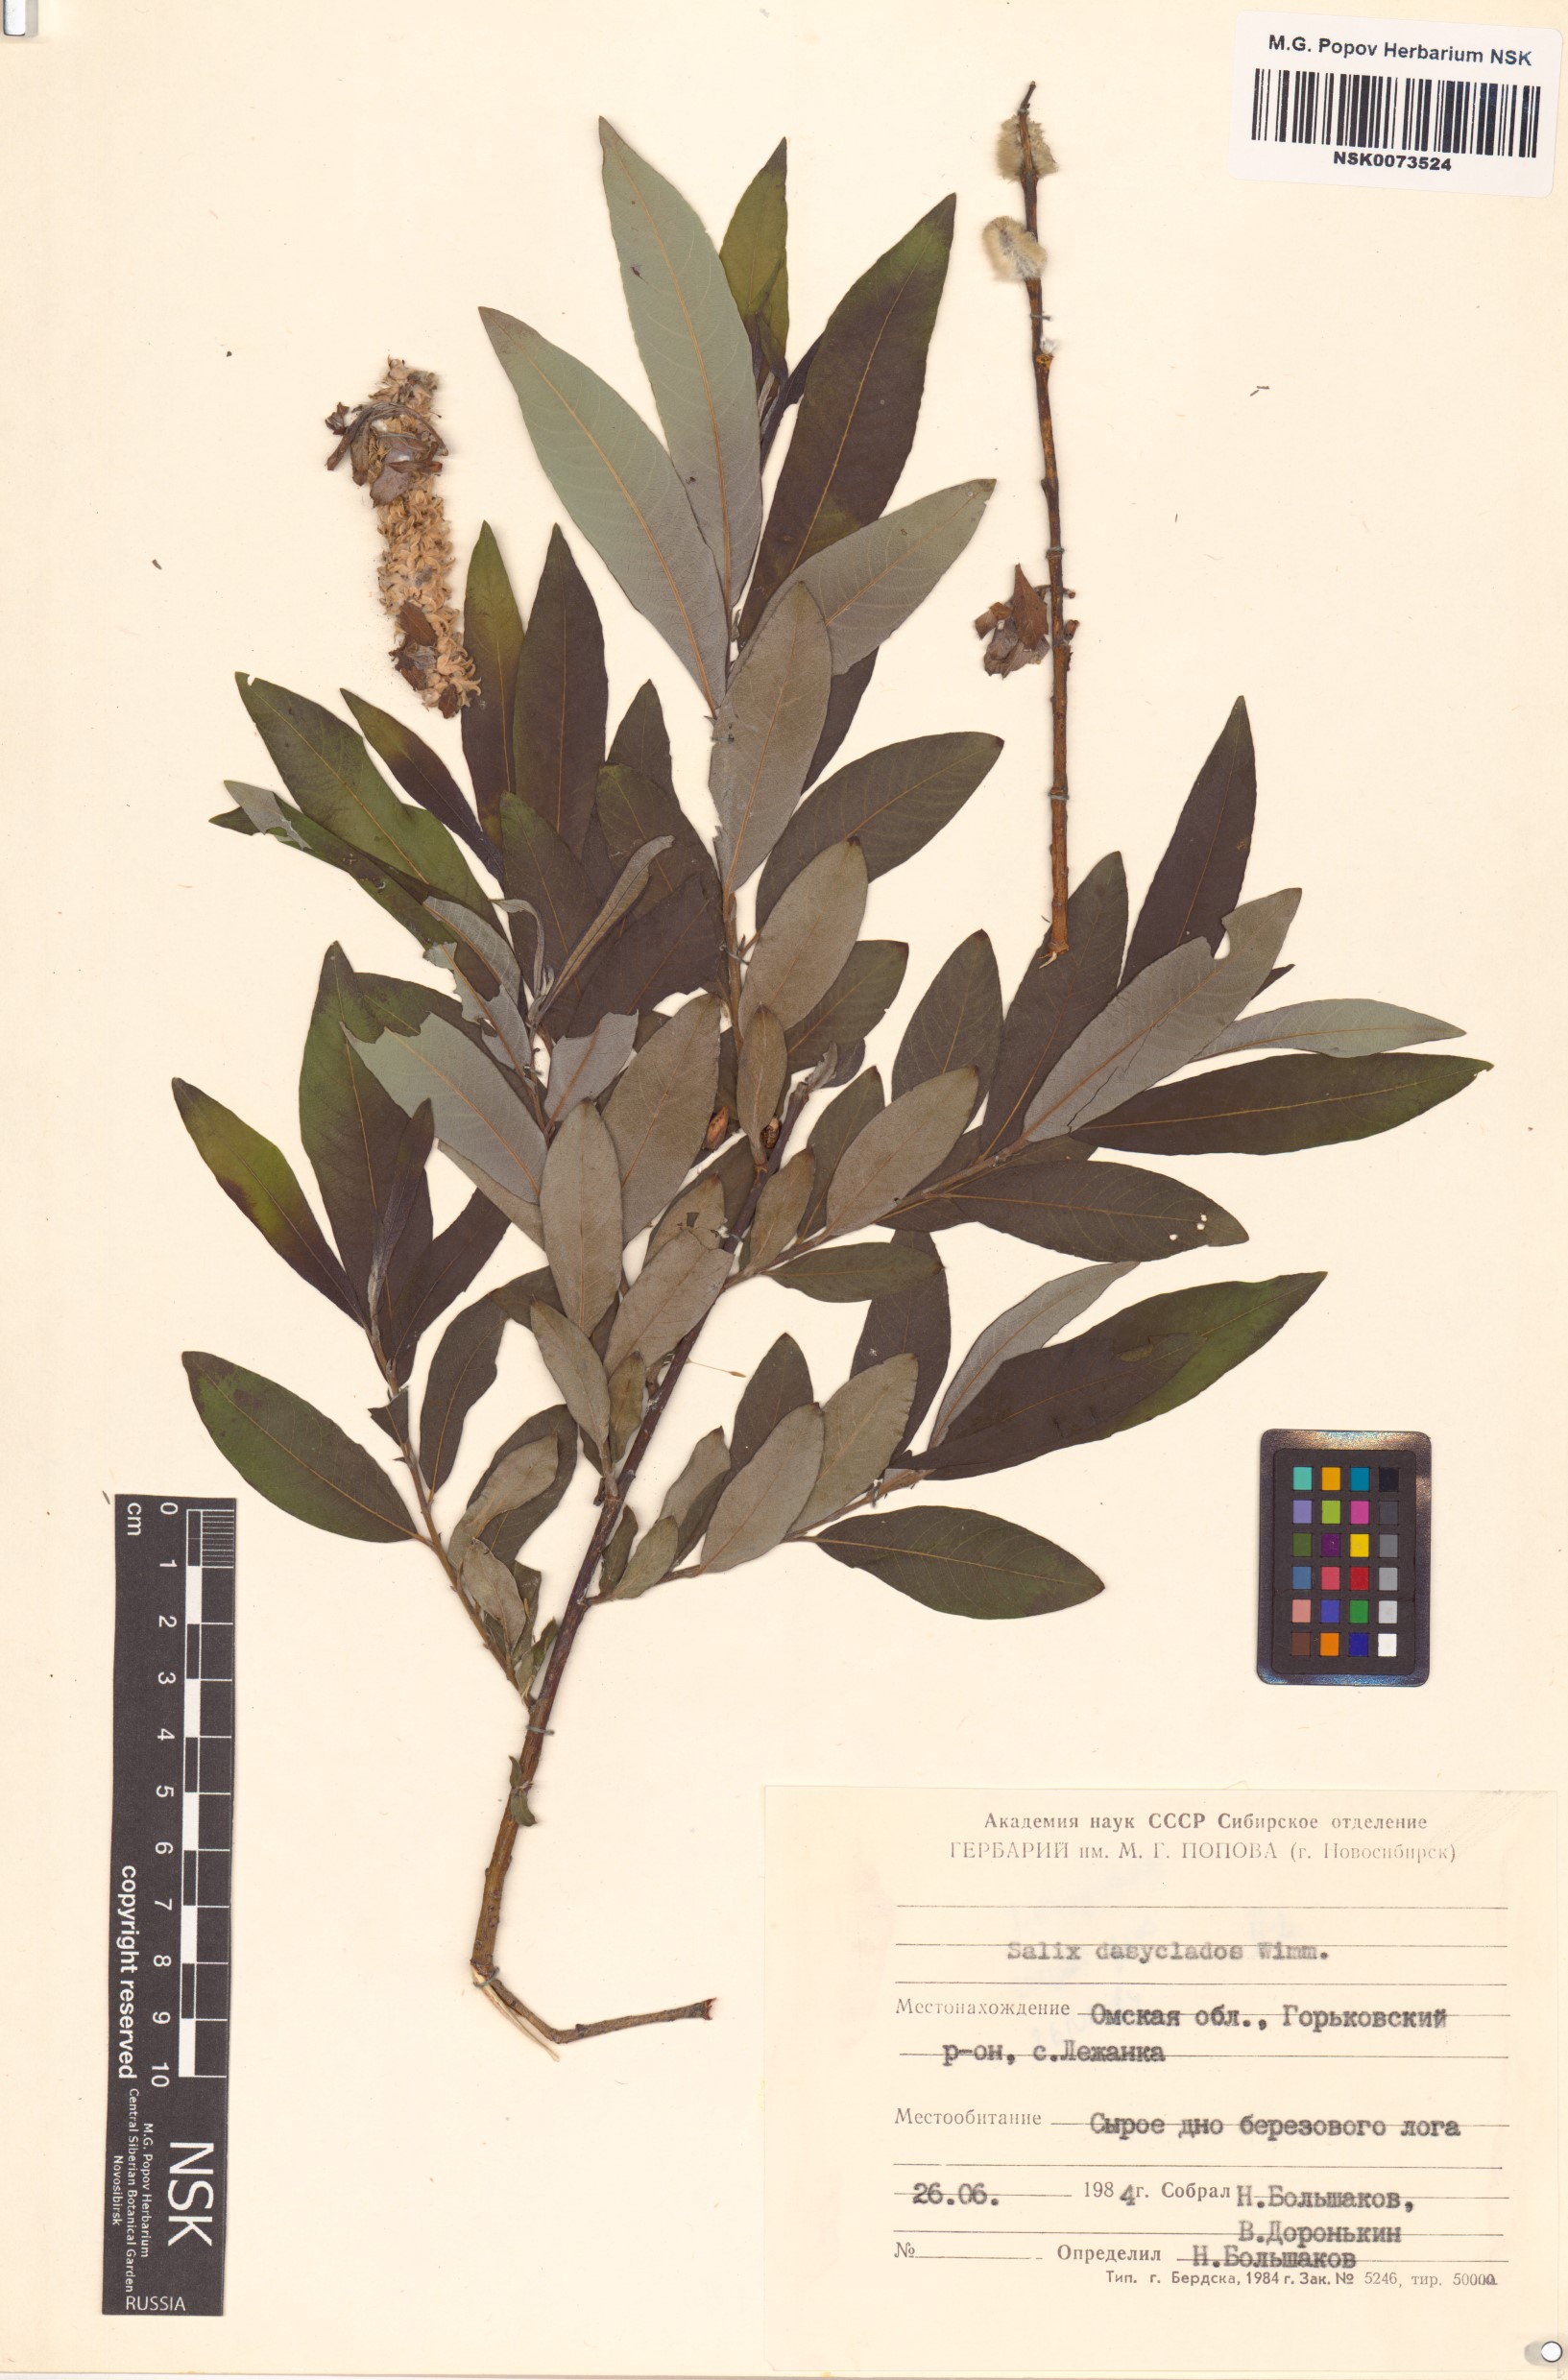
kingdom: Plantae
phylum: Tracheophyta
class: Magnoliopsida
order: Malpighiales
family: Salicaceae
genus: Salix
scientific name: Salix gmelinii
